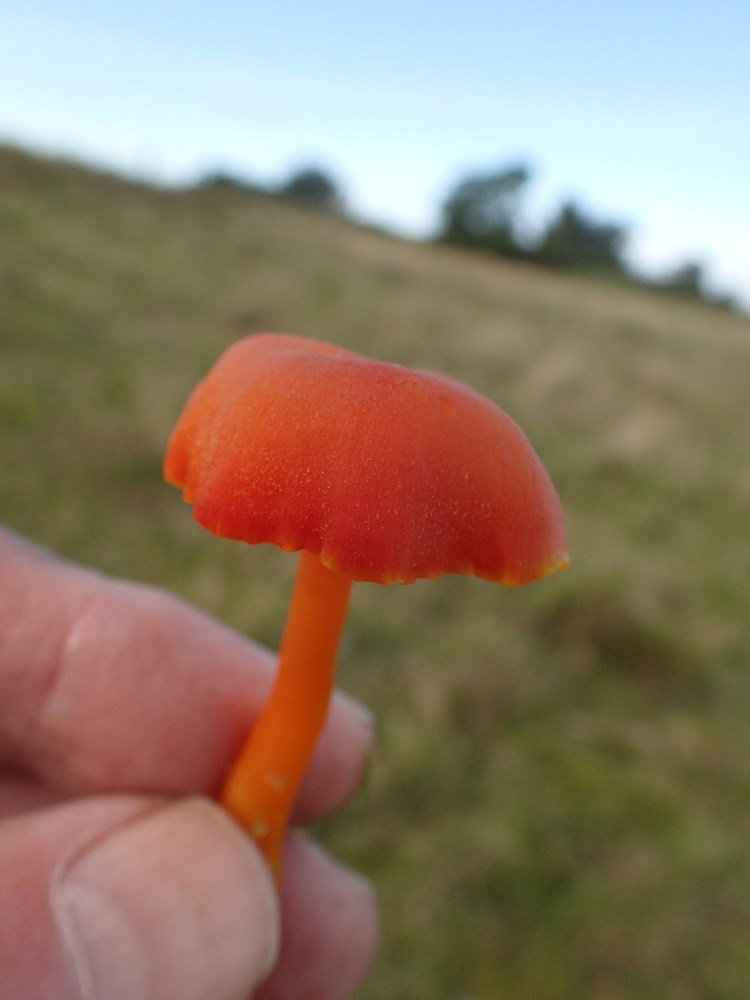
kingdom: Fungi
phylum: Basidiomycota
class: Agaricomycetes
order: Agaricales
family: Hygrophoraceae
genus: Hygrocybe
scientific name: Hygrocybe miniata
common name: mønje-vokshat
